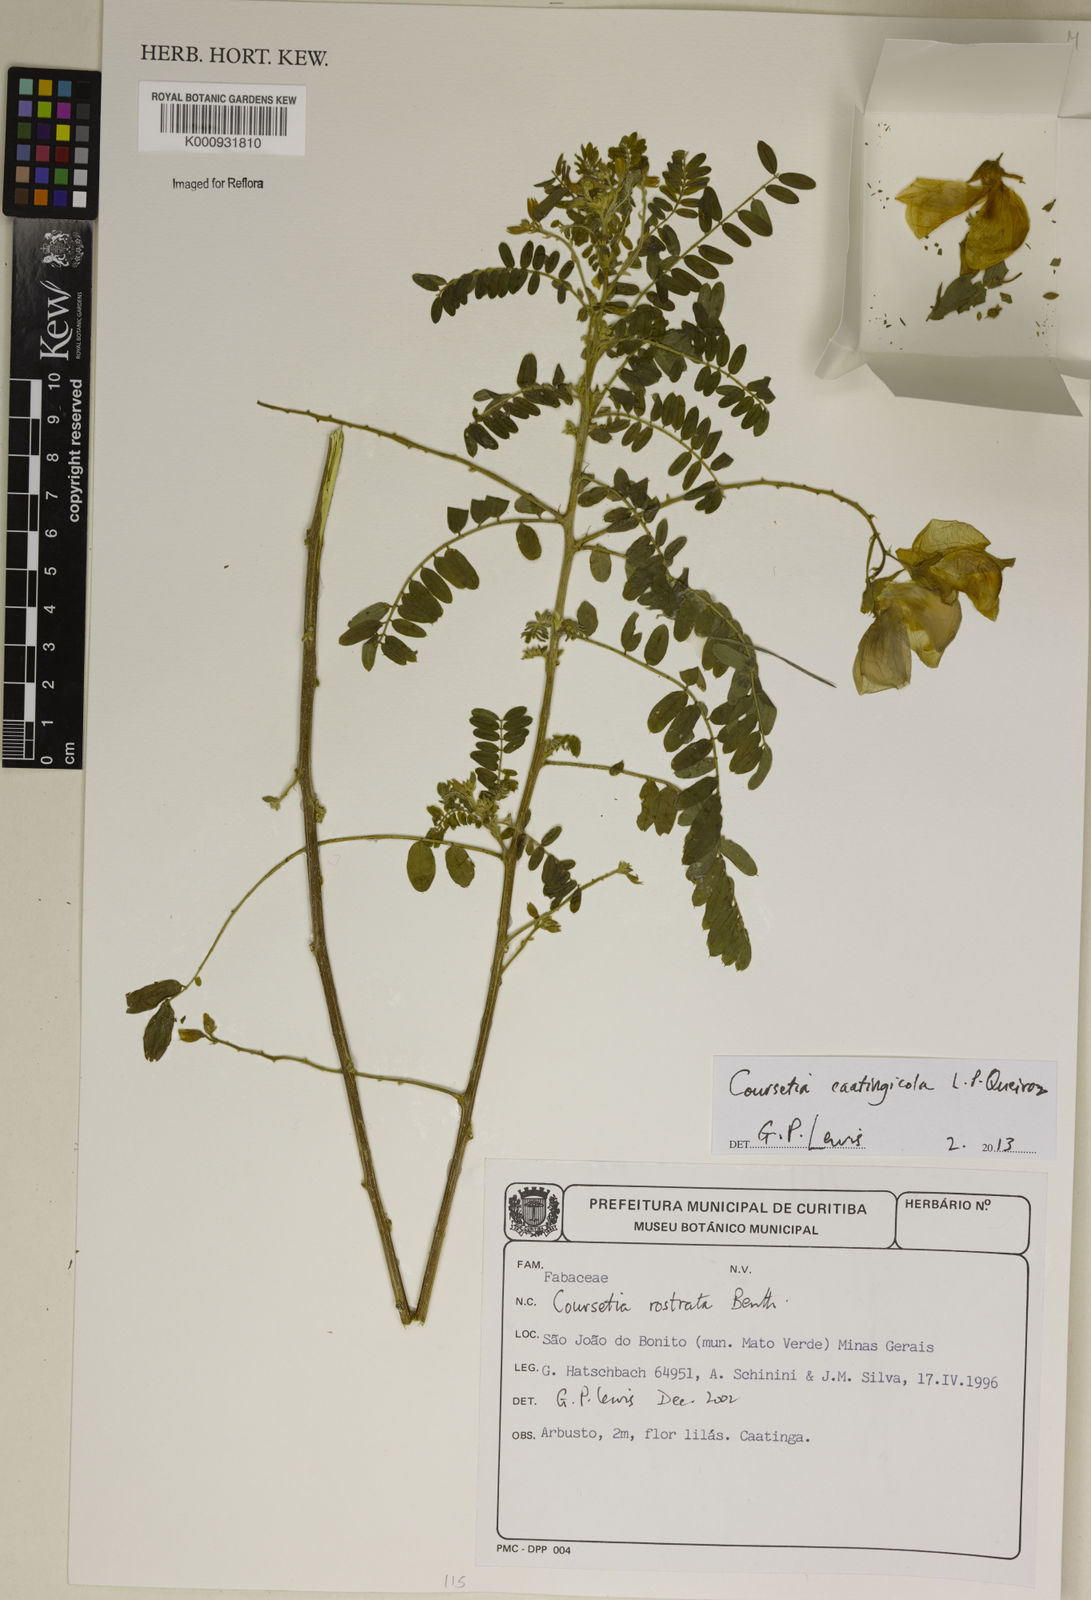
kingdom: Plantae
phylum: Tracheophyta
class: Magnoliopsida
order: Fabales
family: Fabaceae
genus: Coursetia
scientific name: Coursetia caatingicola
